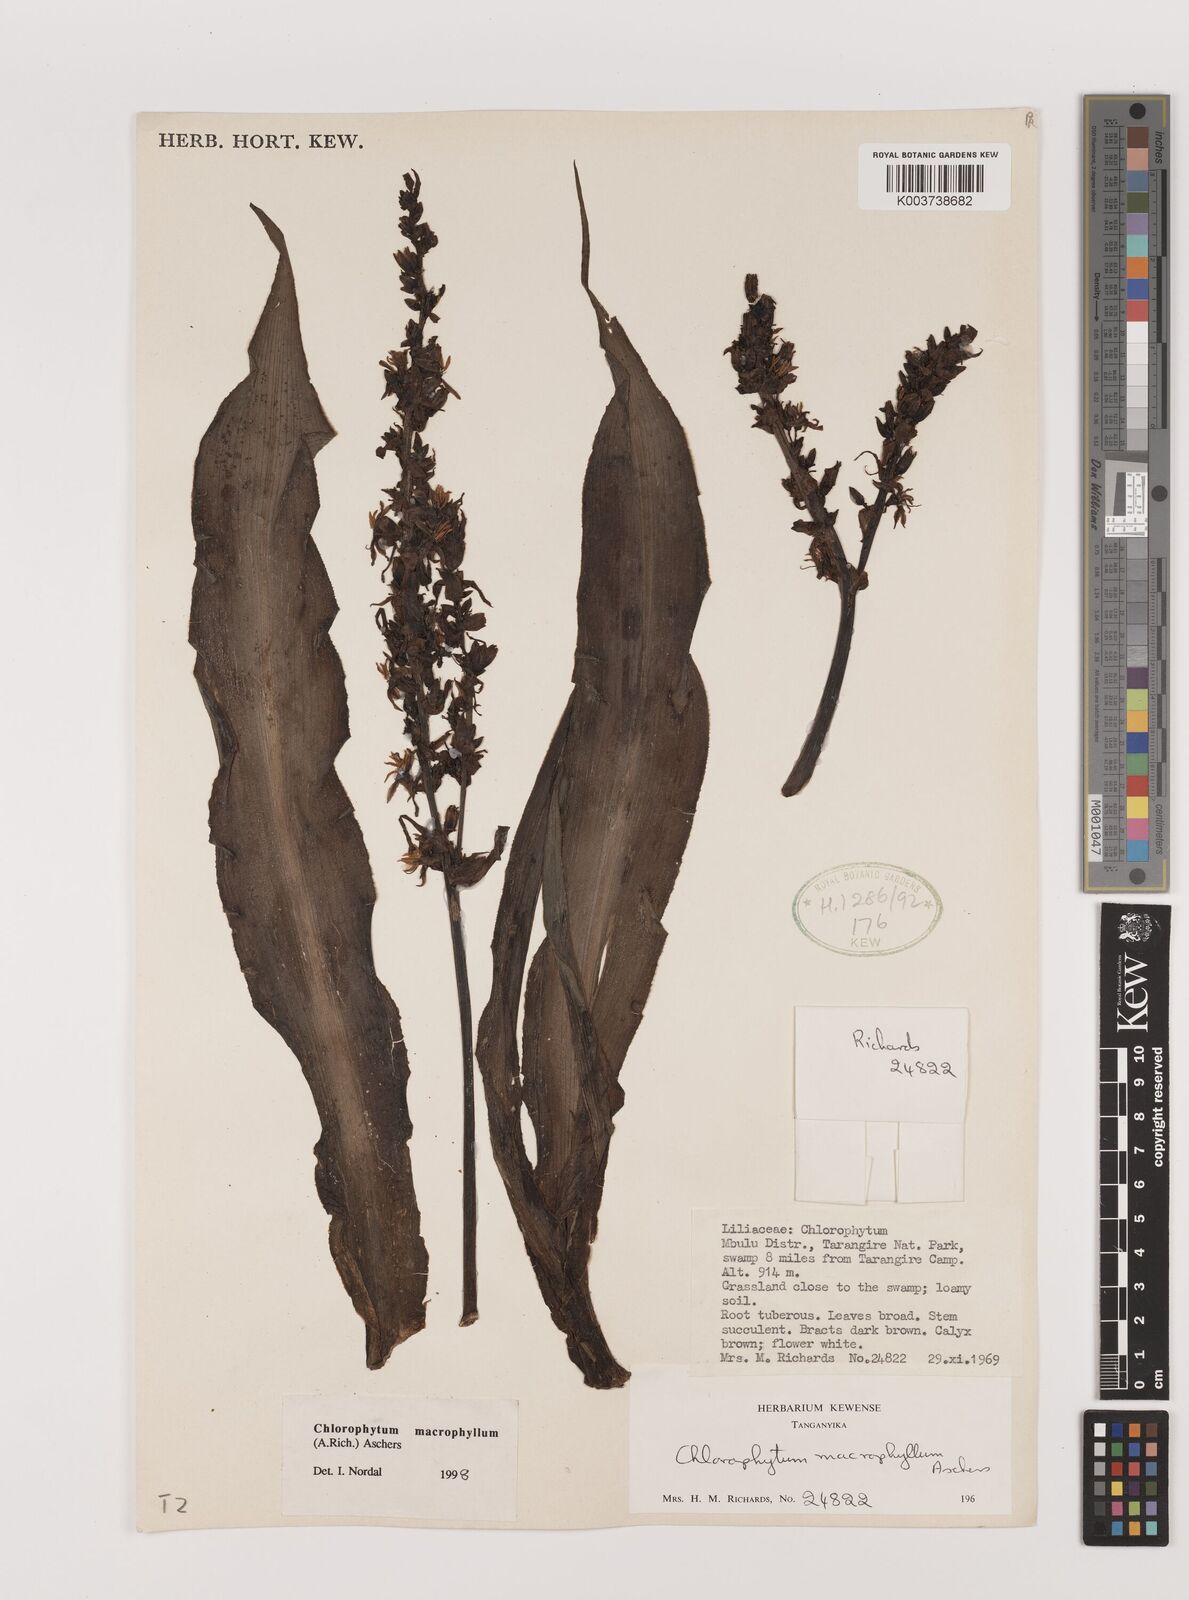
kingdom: Plantae
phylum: Tracheophyta
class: Liliopsida
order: Asparagales
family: Asparagaceae
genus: Chlorophytum
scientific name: Chlorophytum macrophyllum
